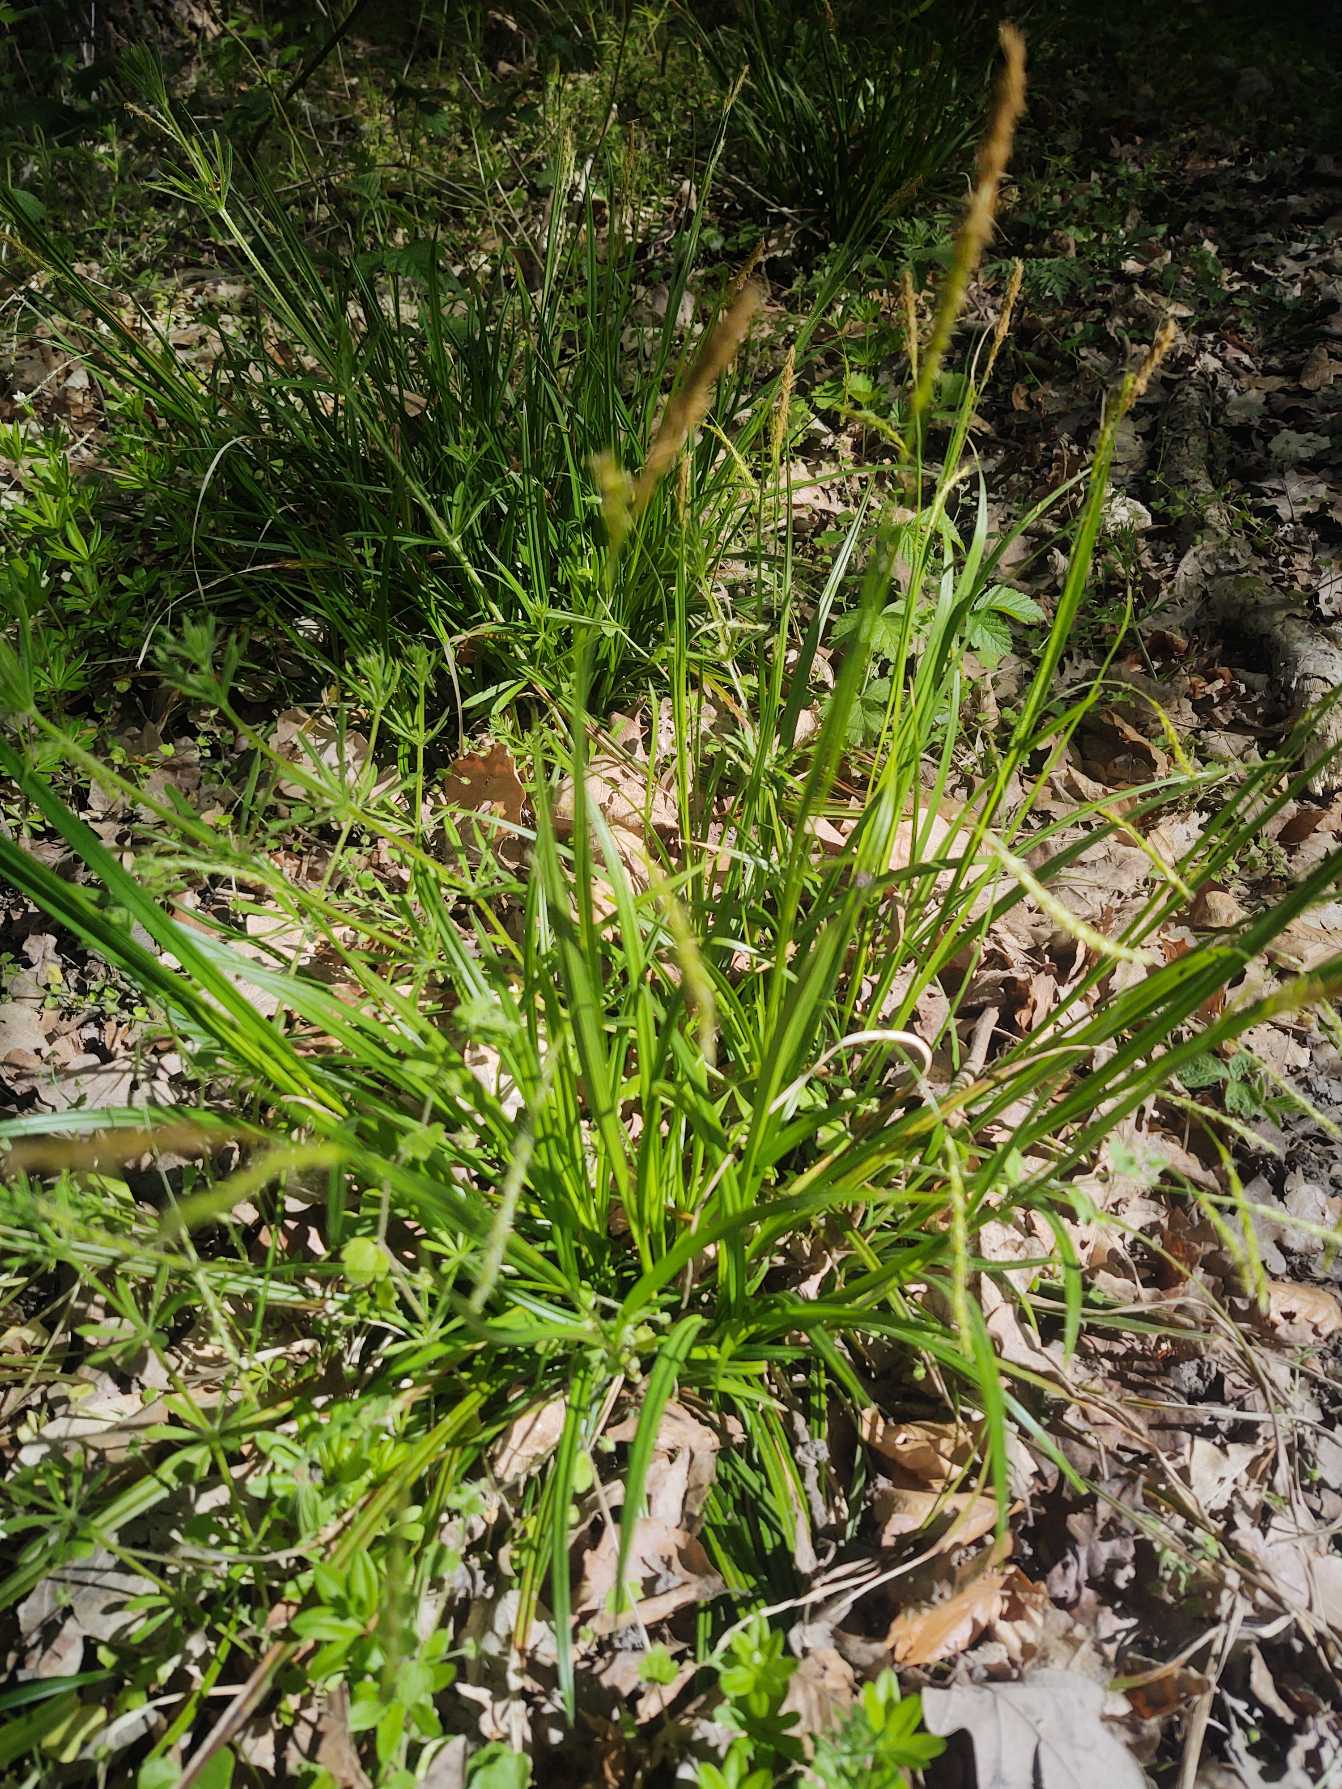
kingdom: Plantae
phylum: Tracheophyta
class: Liliopsida
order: Poales
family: Cyperaceae
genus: Carex
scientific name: Carex sylvatica
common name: Skov-star
